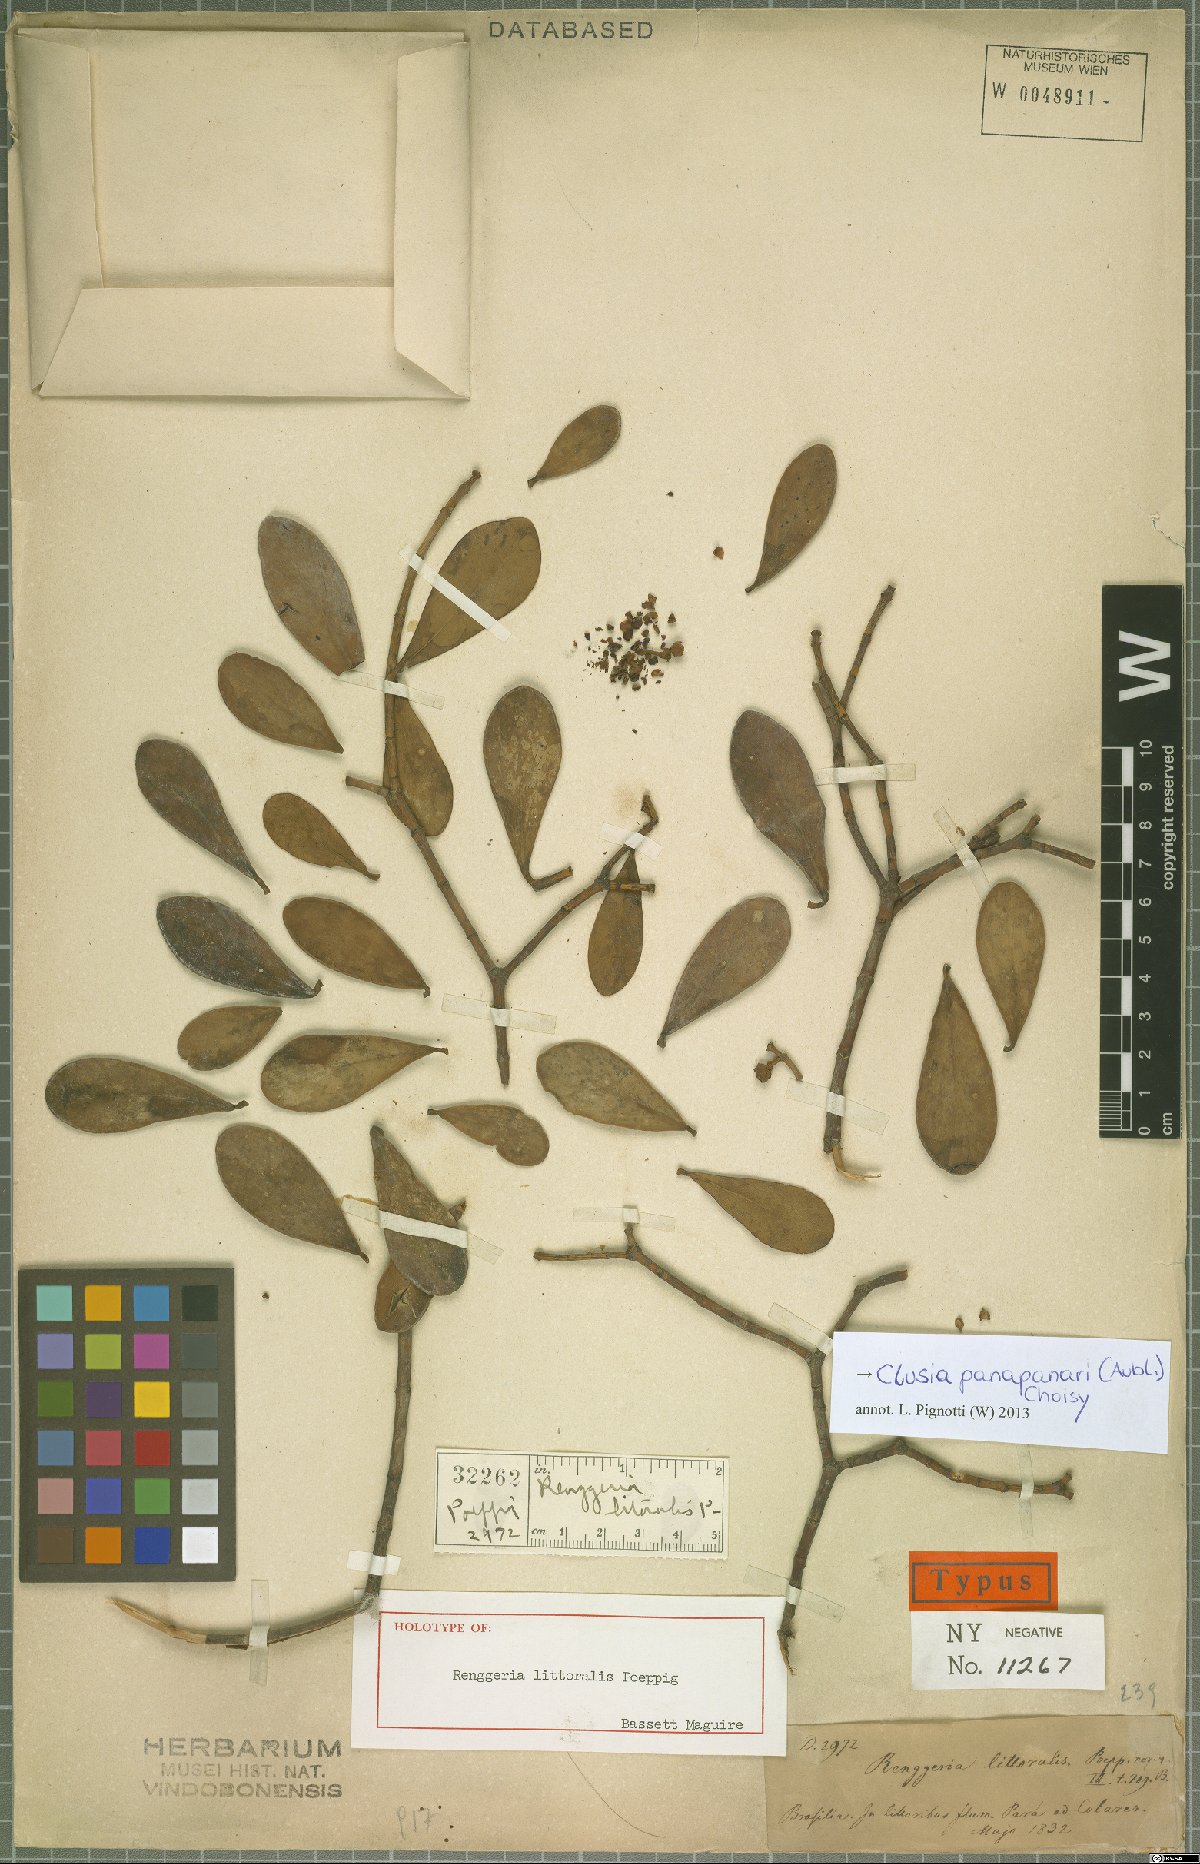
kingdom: Plantae
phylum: Tracheophyta
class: Magnoliopsida
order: Malpighiales
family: Clusiaceae
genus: Clusia
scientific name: Clusia panapanari
